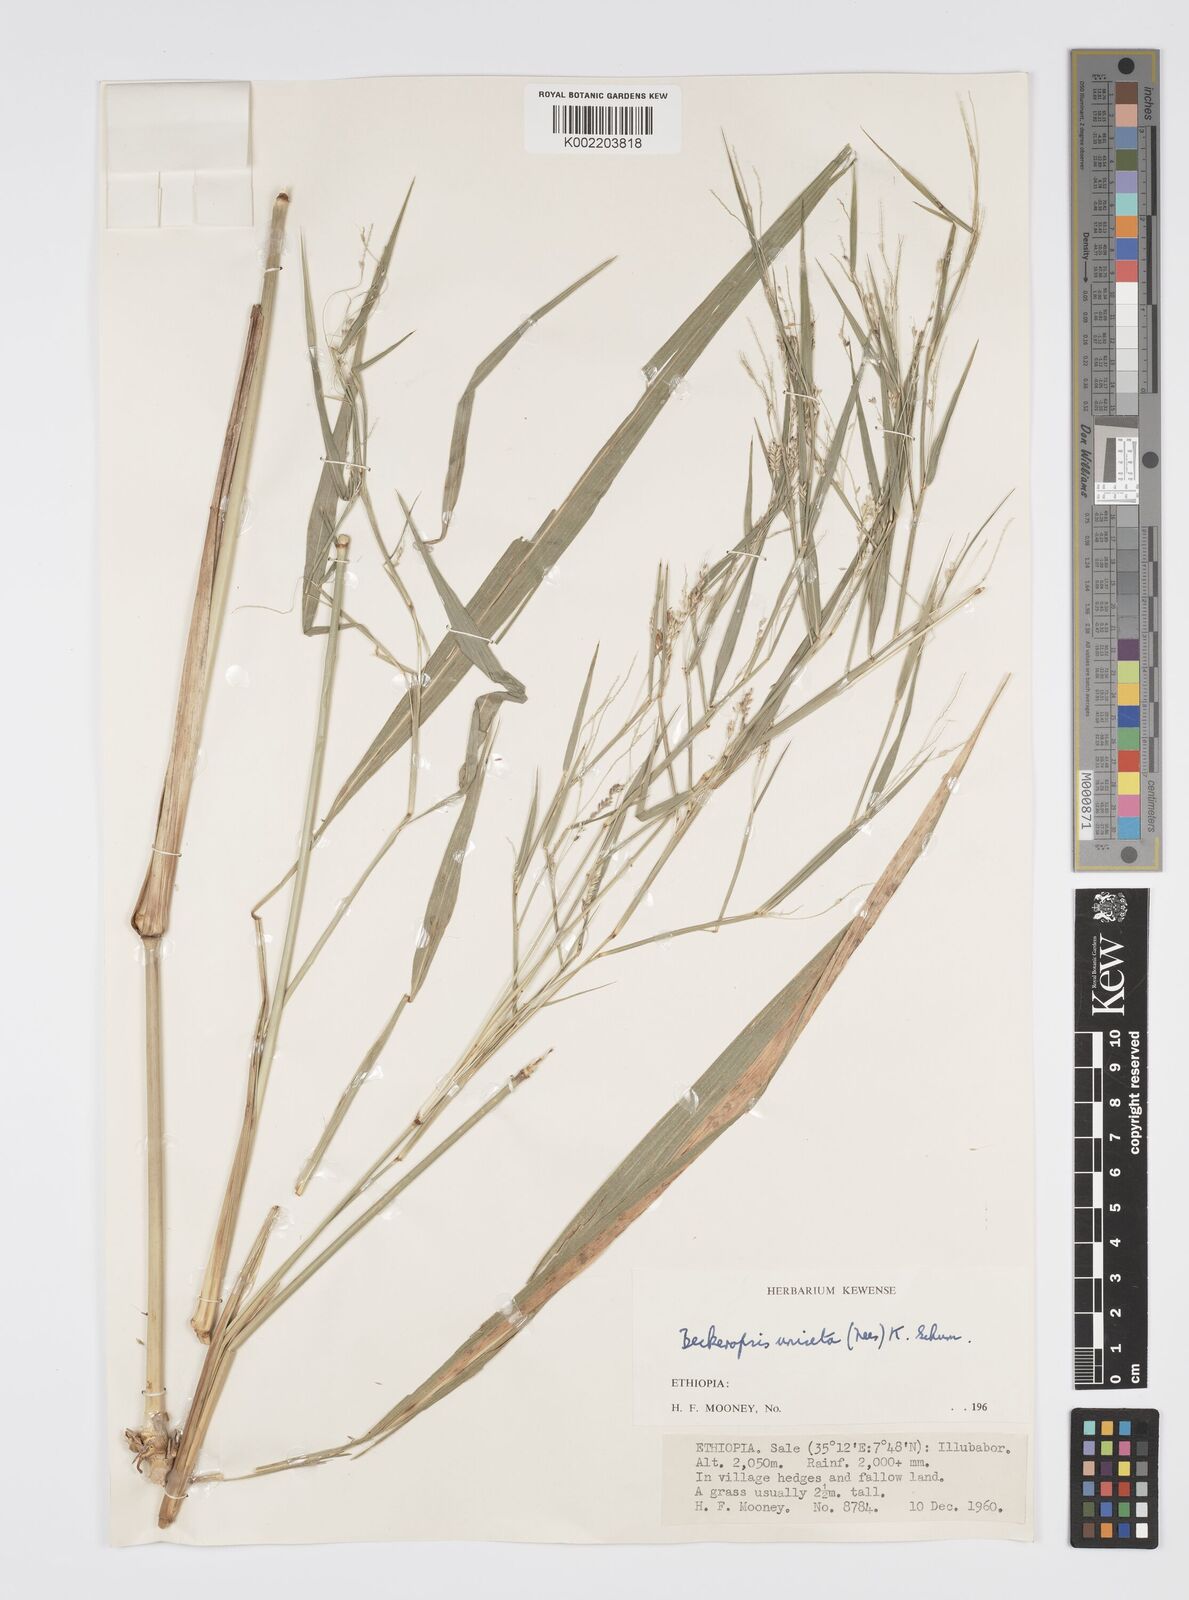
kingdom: Plantae
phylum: Tracheophyta
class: Liliopsida
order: Poales
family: Poaceae
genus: Cenchrus
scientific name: Cenchrus unisetus
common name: Natal grass
